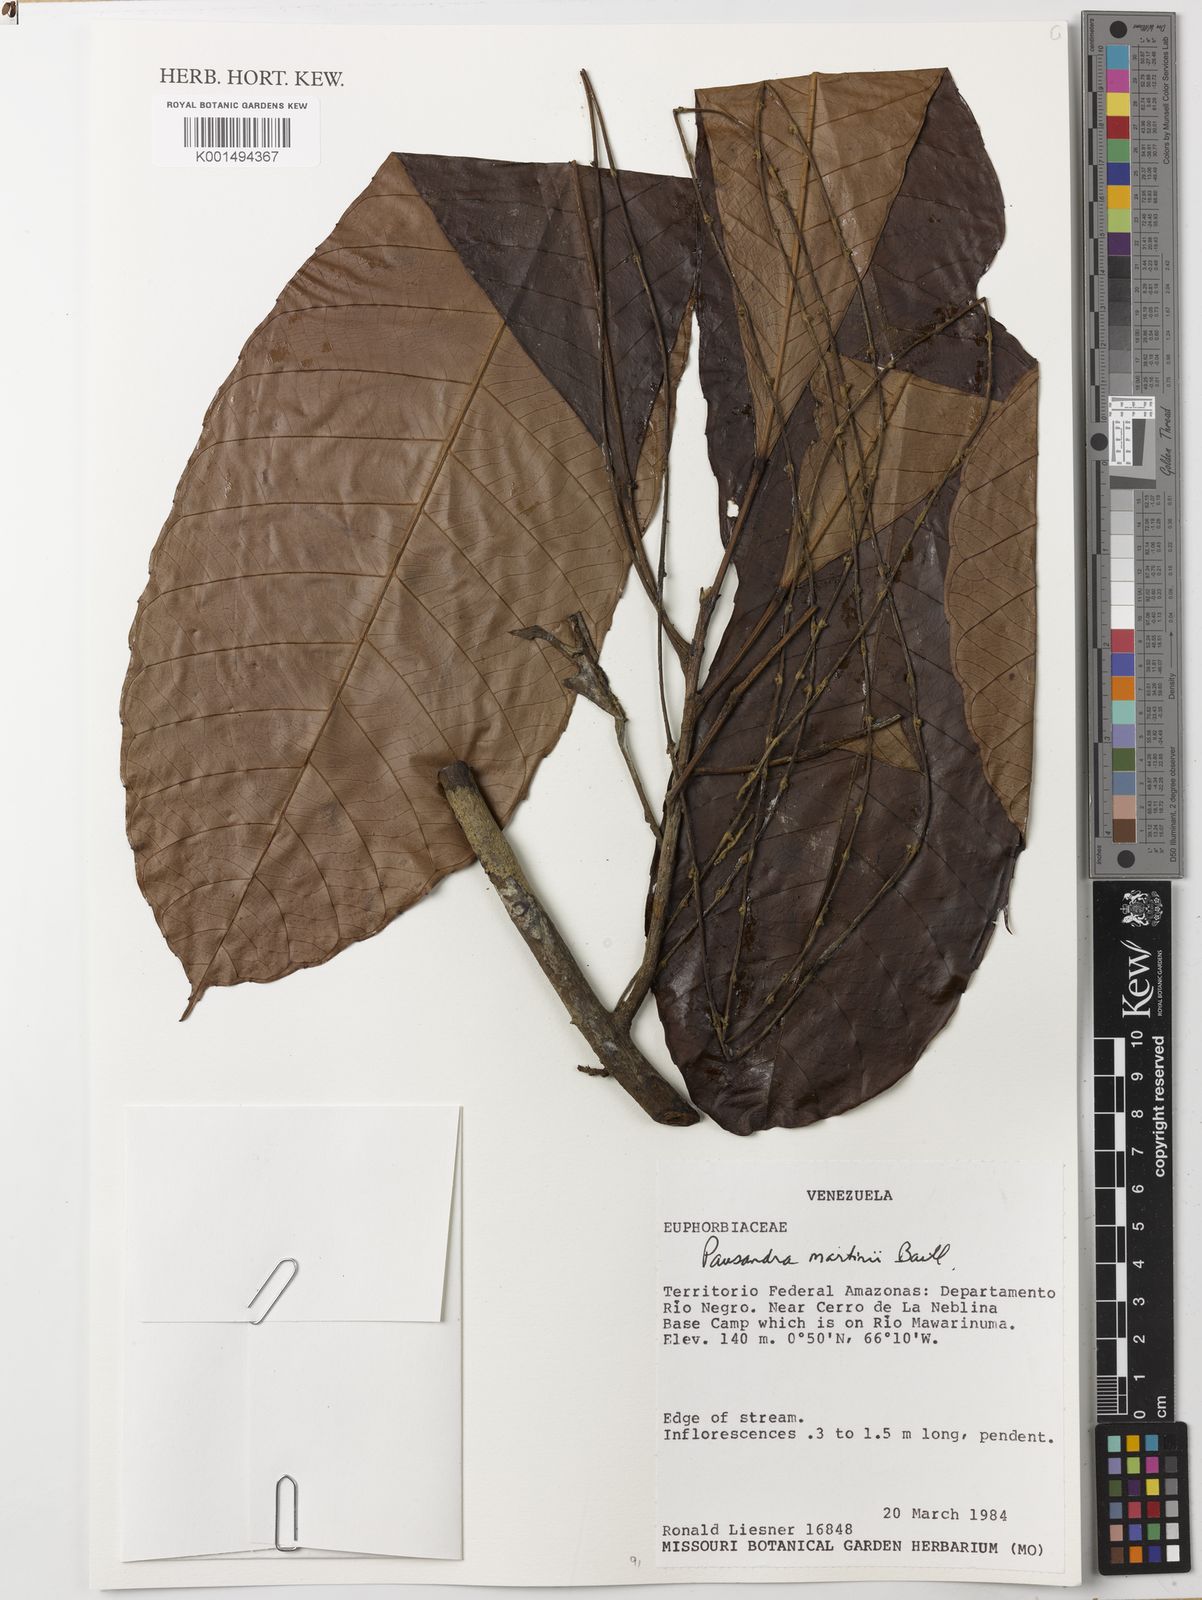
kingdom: Plantae
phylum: Tracheophyta
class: Magnoliopsida
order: Malpighiales
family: Euphorbiaceae
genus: Pausandra
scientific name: Pausandra martini
